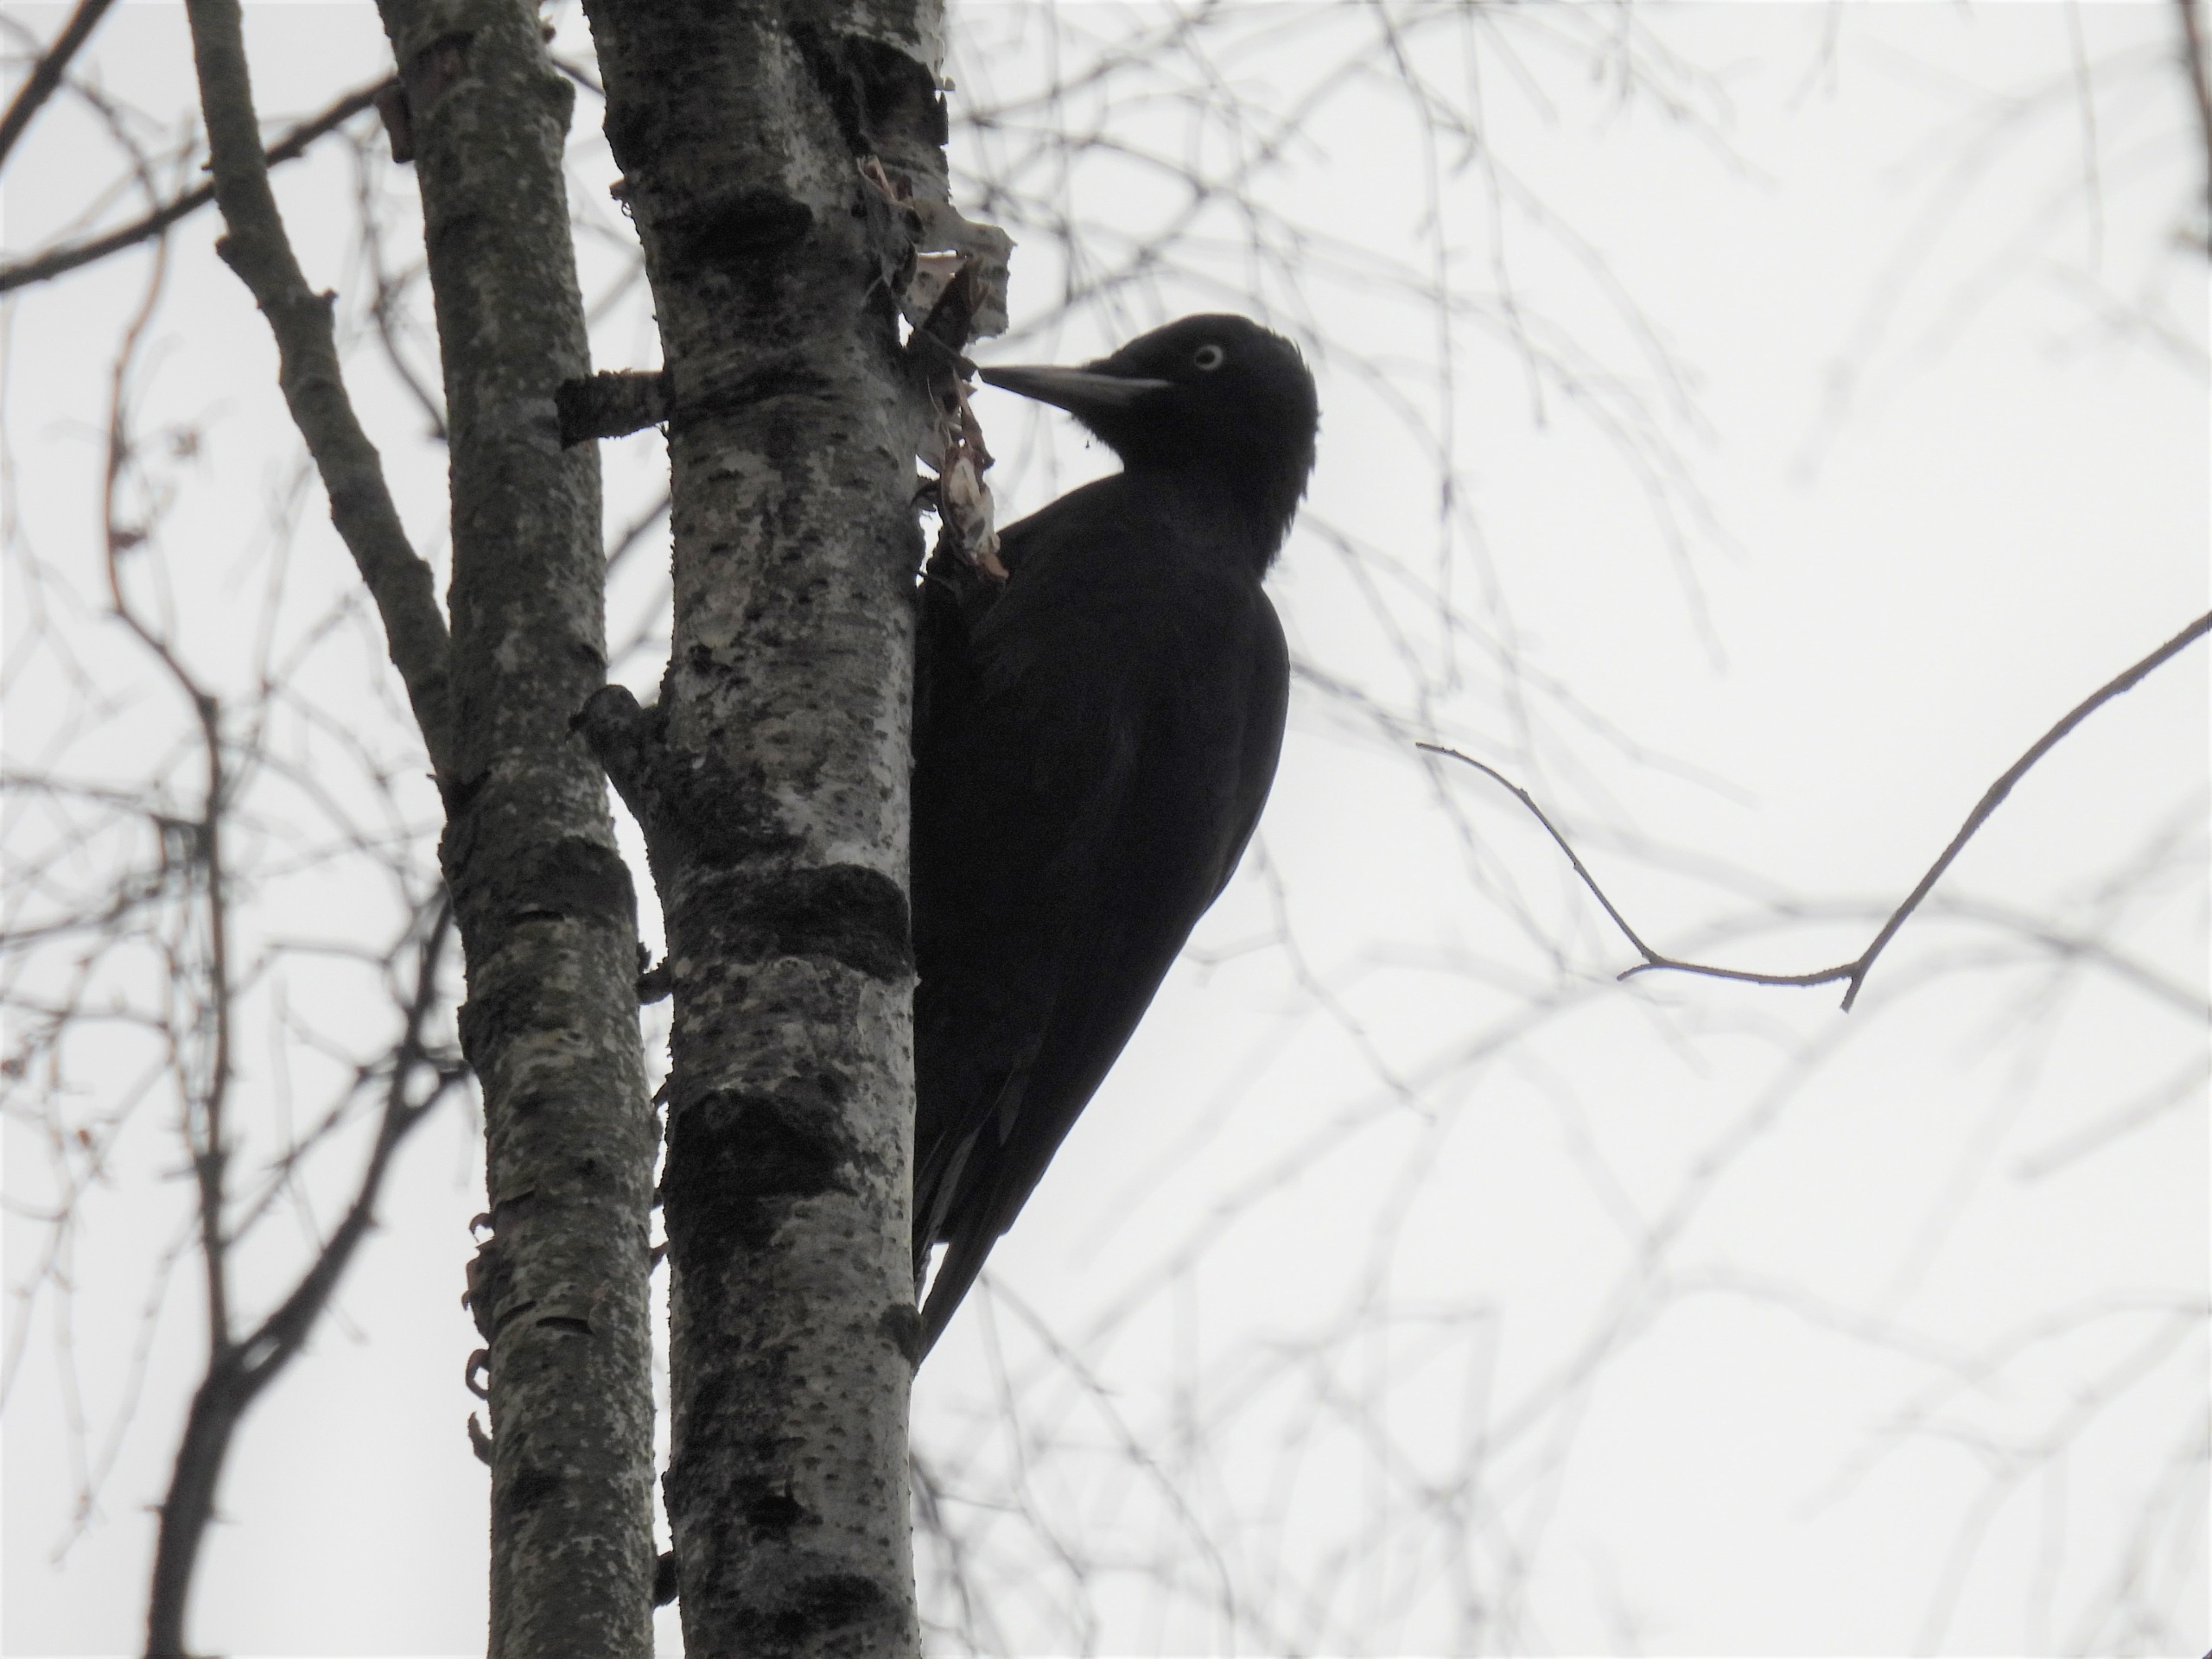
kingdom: Animalia
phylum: Chordata
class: Aves
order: Piciformes
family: Picidae
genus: Dryocopus
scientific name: Dryocopus martius
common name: Sortspætte
